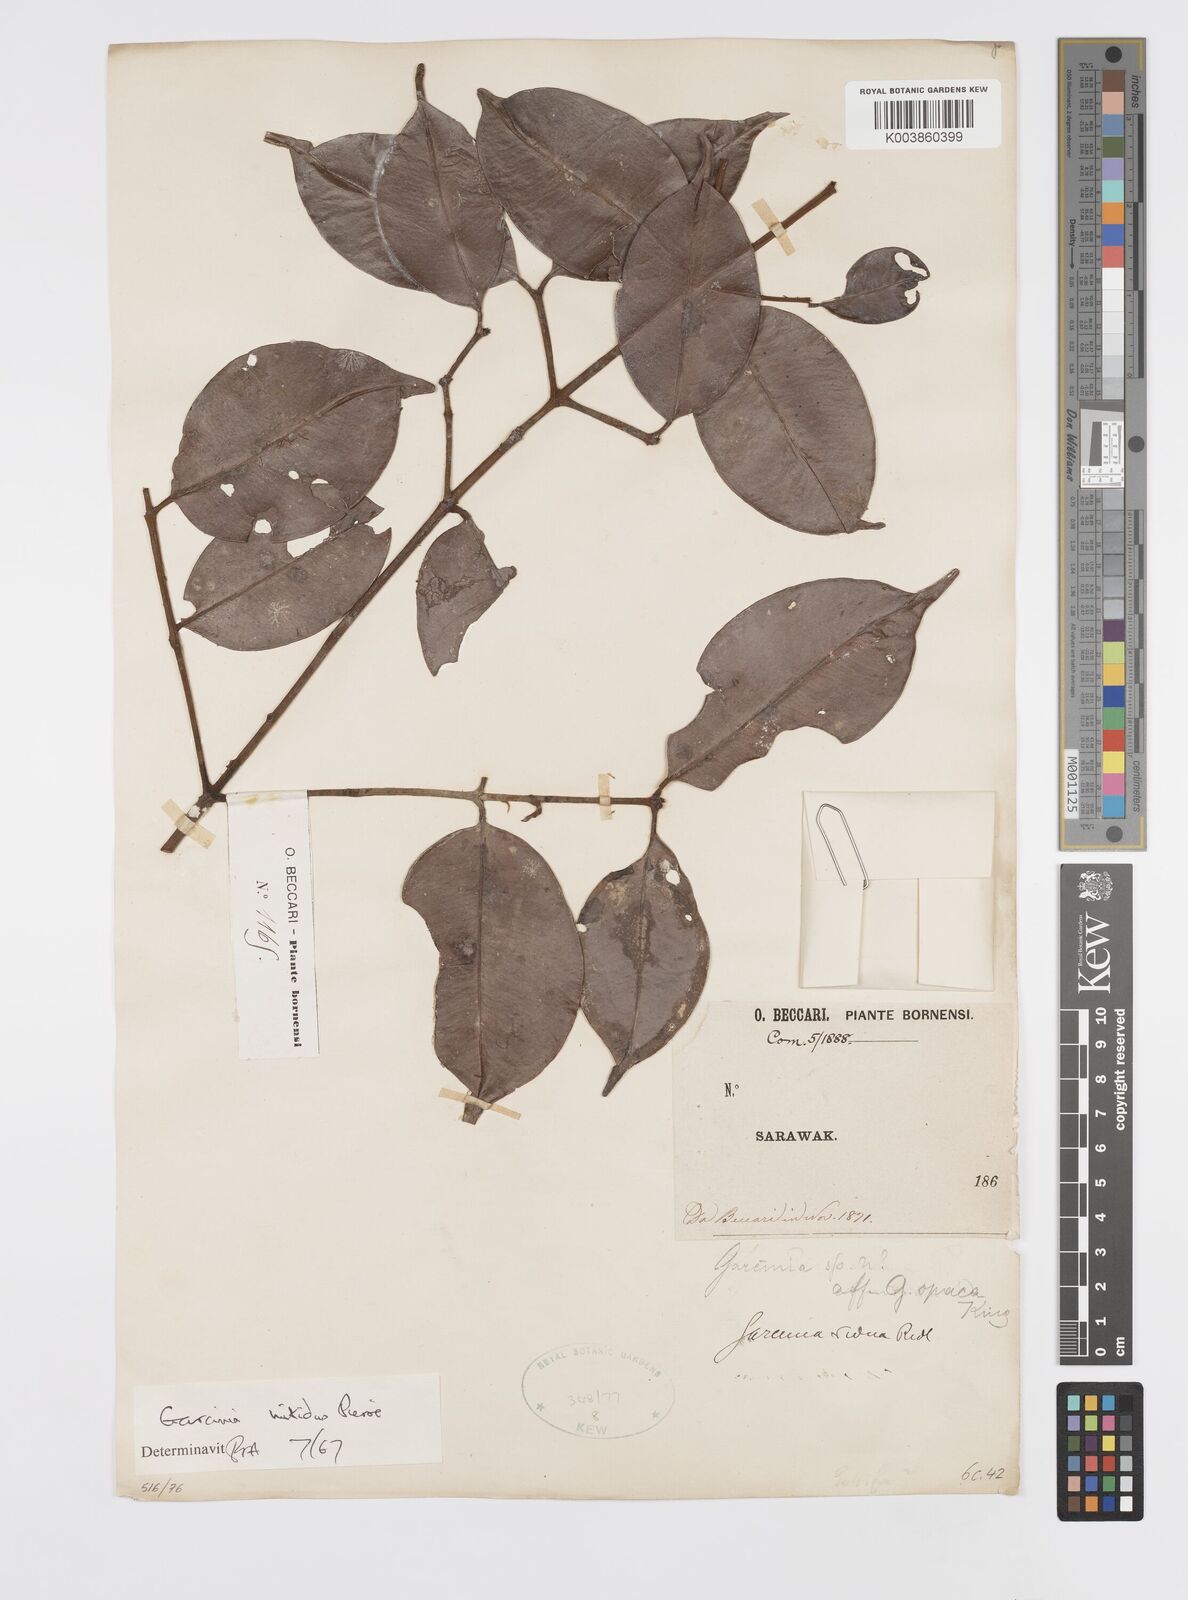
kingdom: Plantae
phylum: Tracheophyta
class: Magnoliopsida
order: Malpighiales
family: Clusiaceae
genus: Garcinia
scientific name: Garcinia nitida
